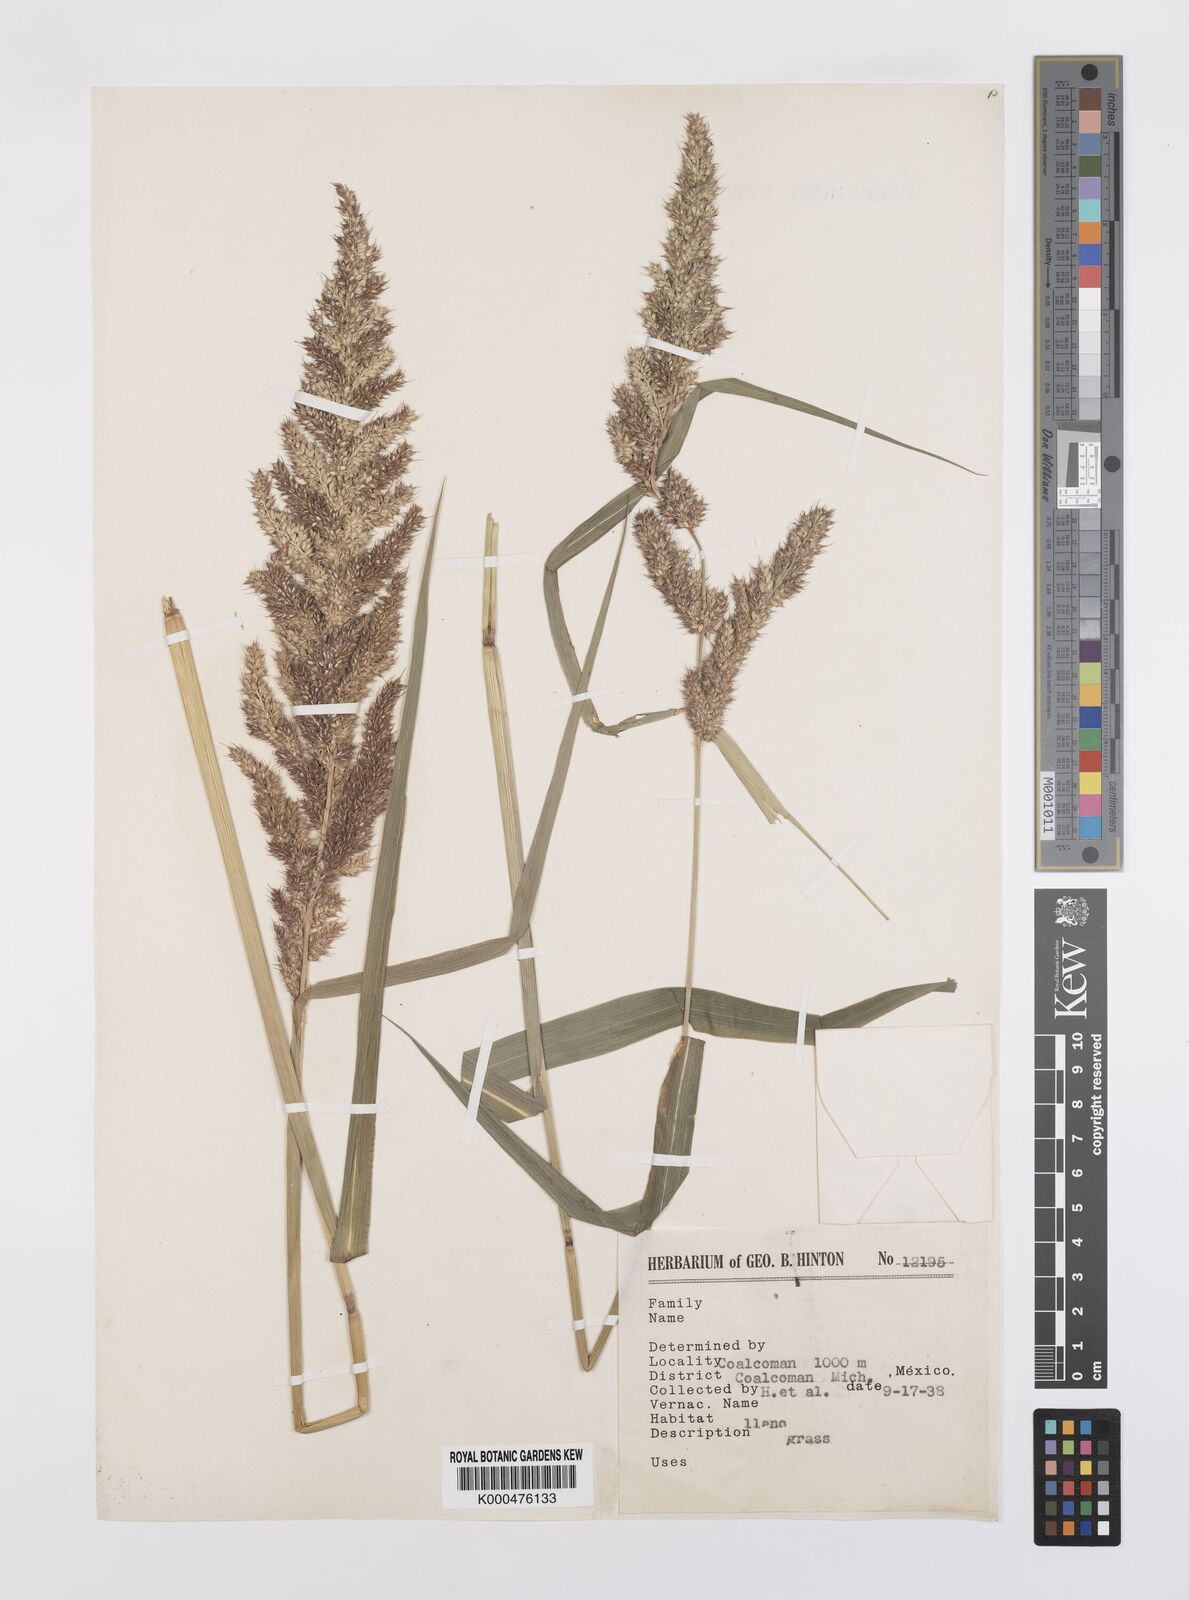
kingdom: Plantae
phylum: Tracheophyta
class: Liliopsida
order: Poales
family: Poaceae
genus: Echinochloa
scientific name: Echinochloa crus-pavonis
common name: Gulf cockspur grass
